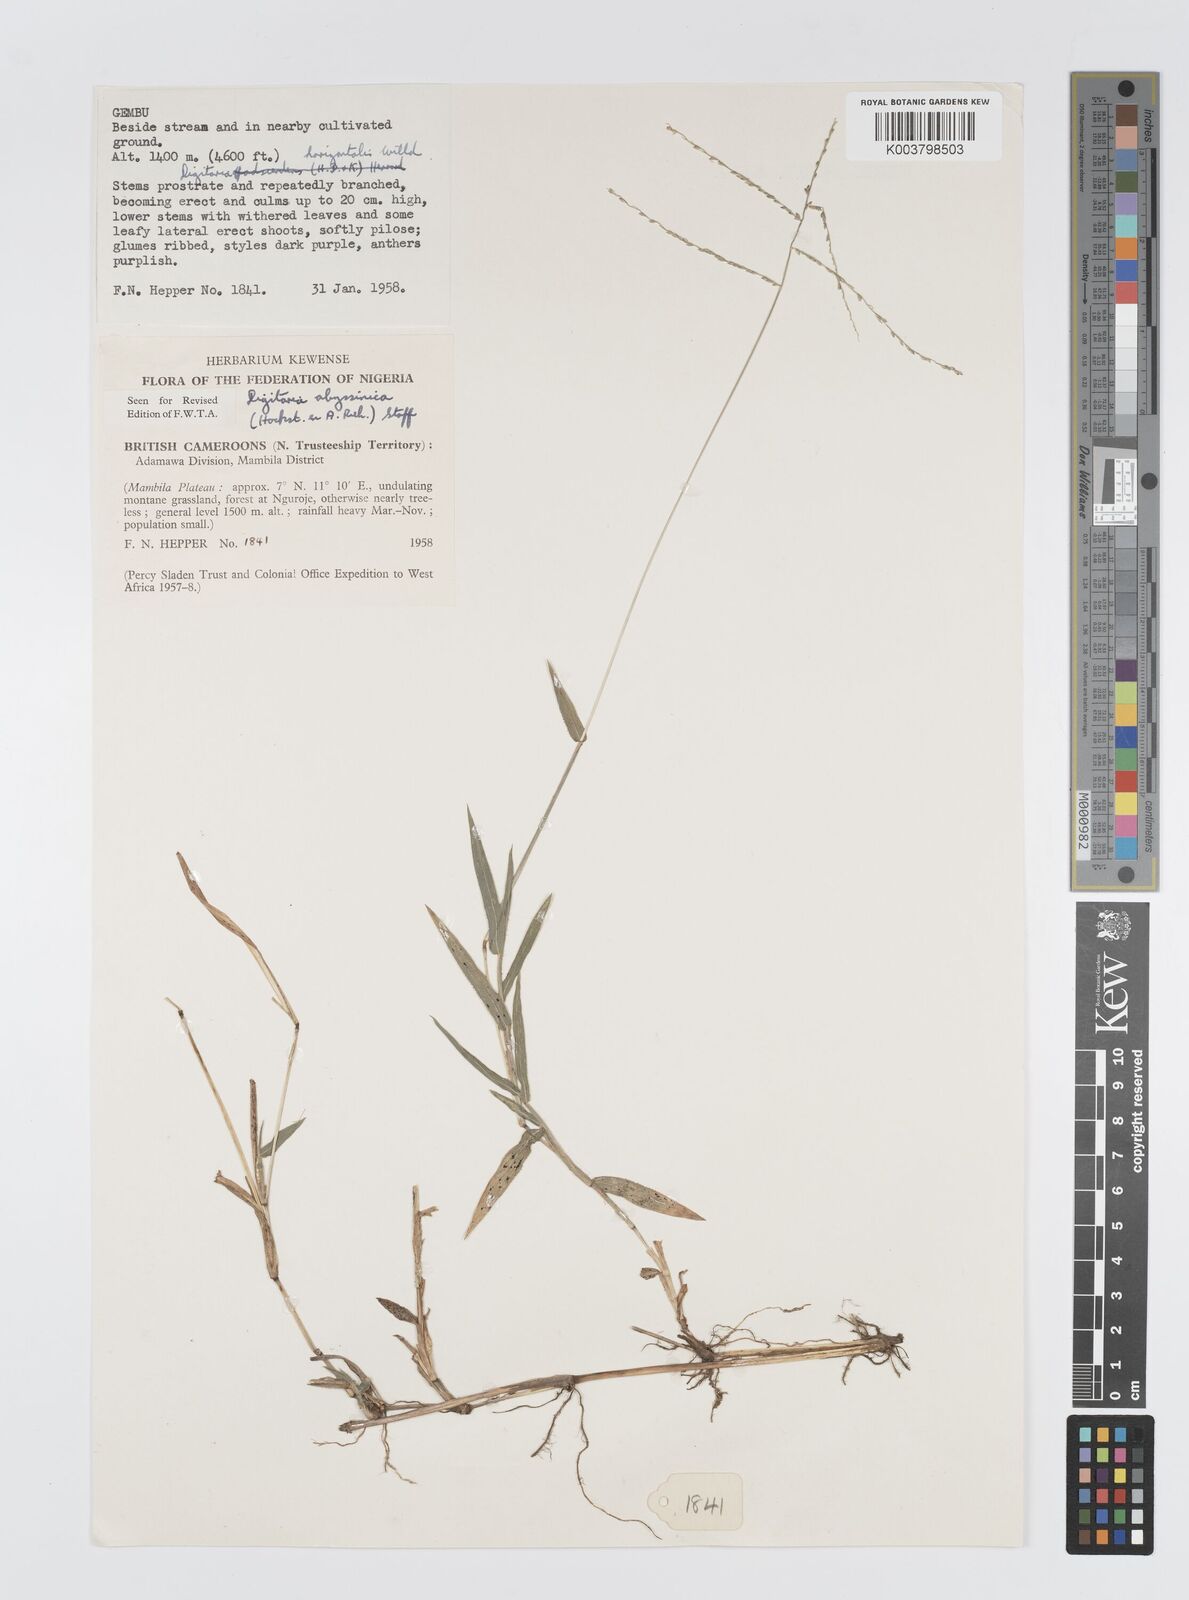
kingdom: Plantae
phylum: Tracheophyta
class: Liliopsida
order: Poales
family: Poaceae
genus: Digitaria
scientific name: Digitaria abyssinica
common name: African couchgrass
